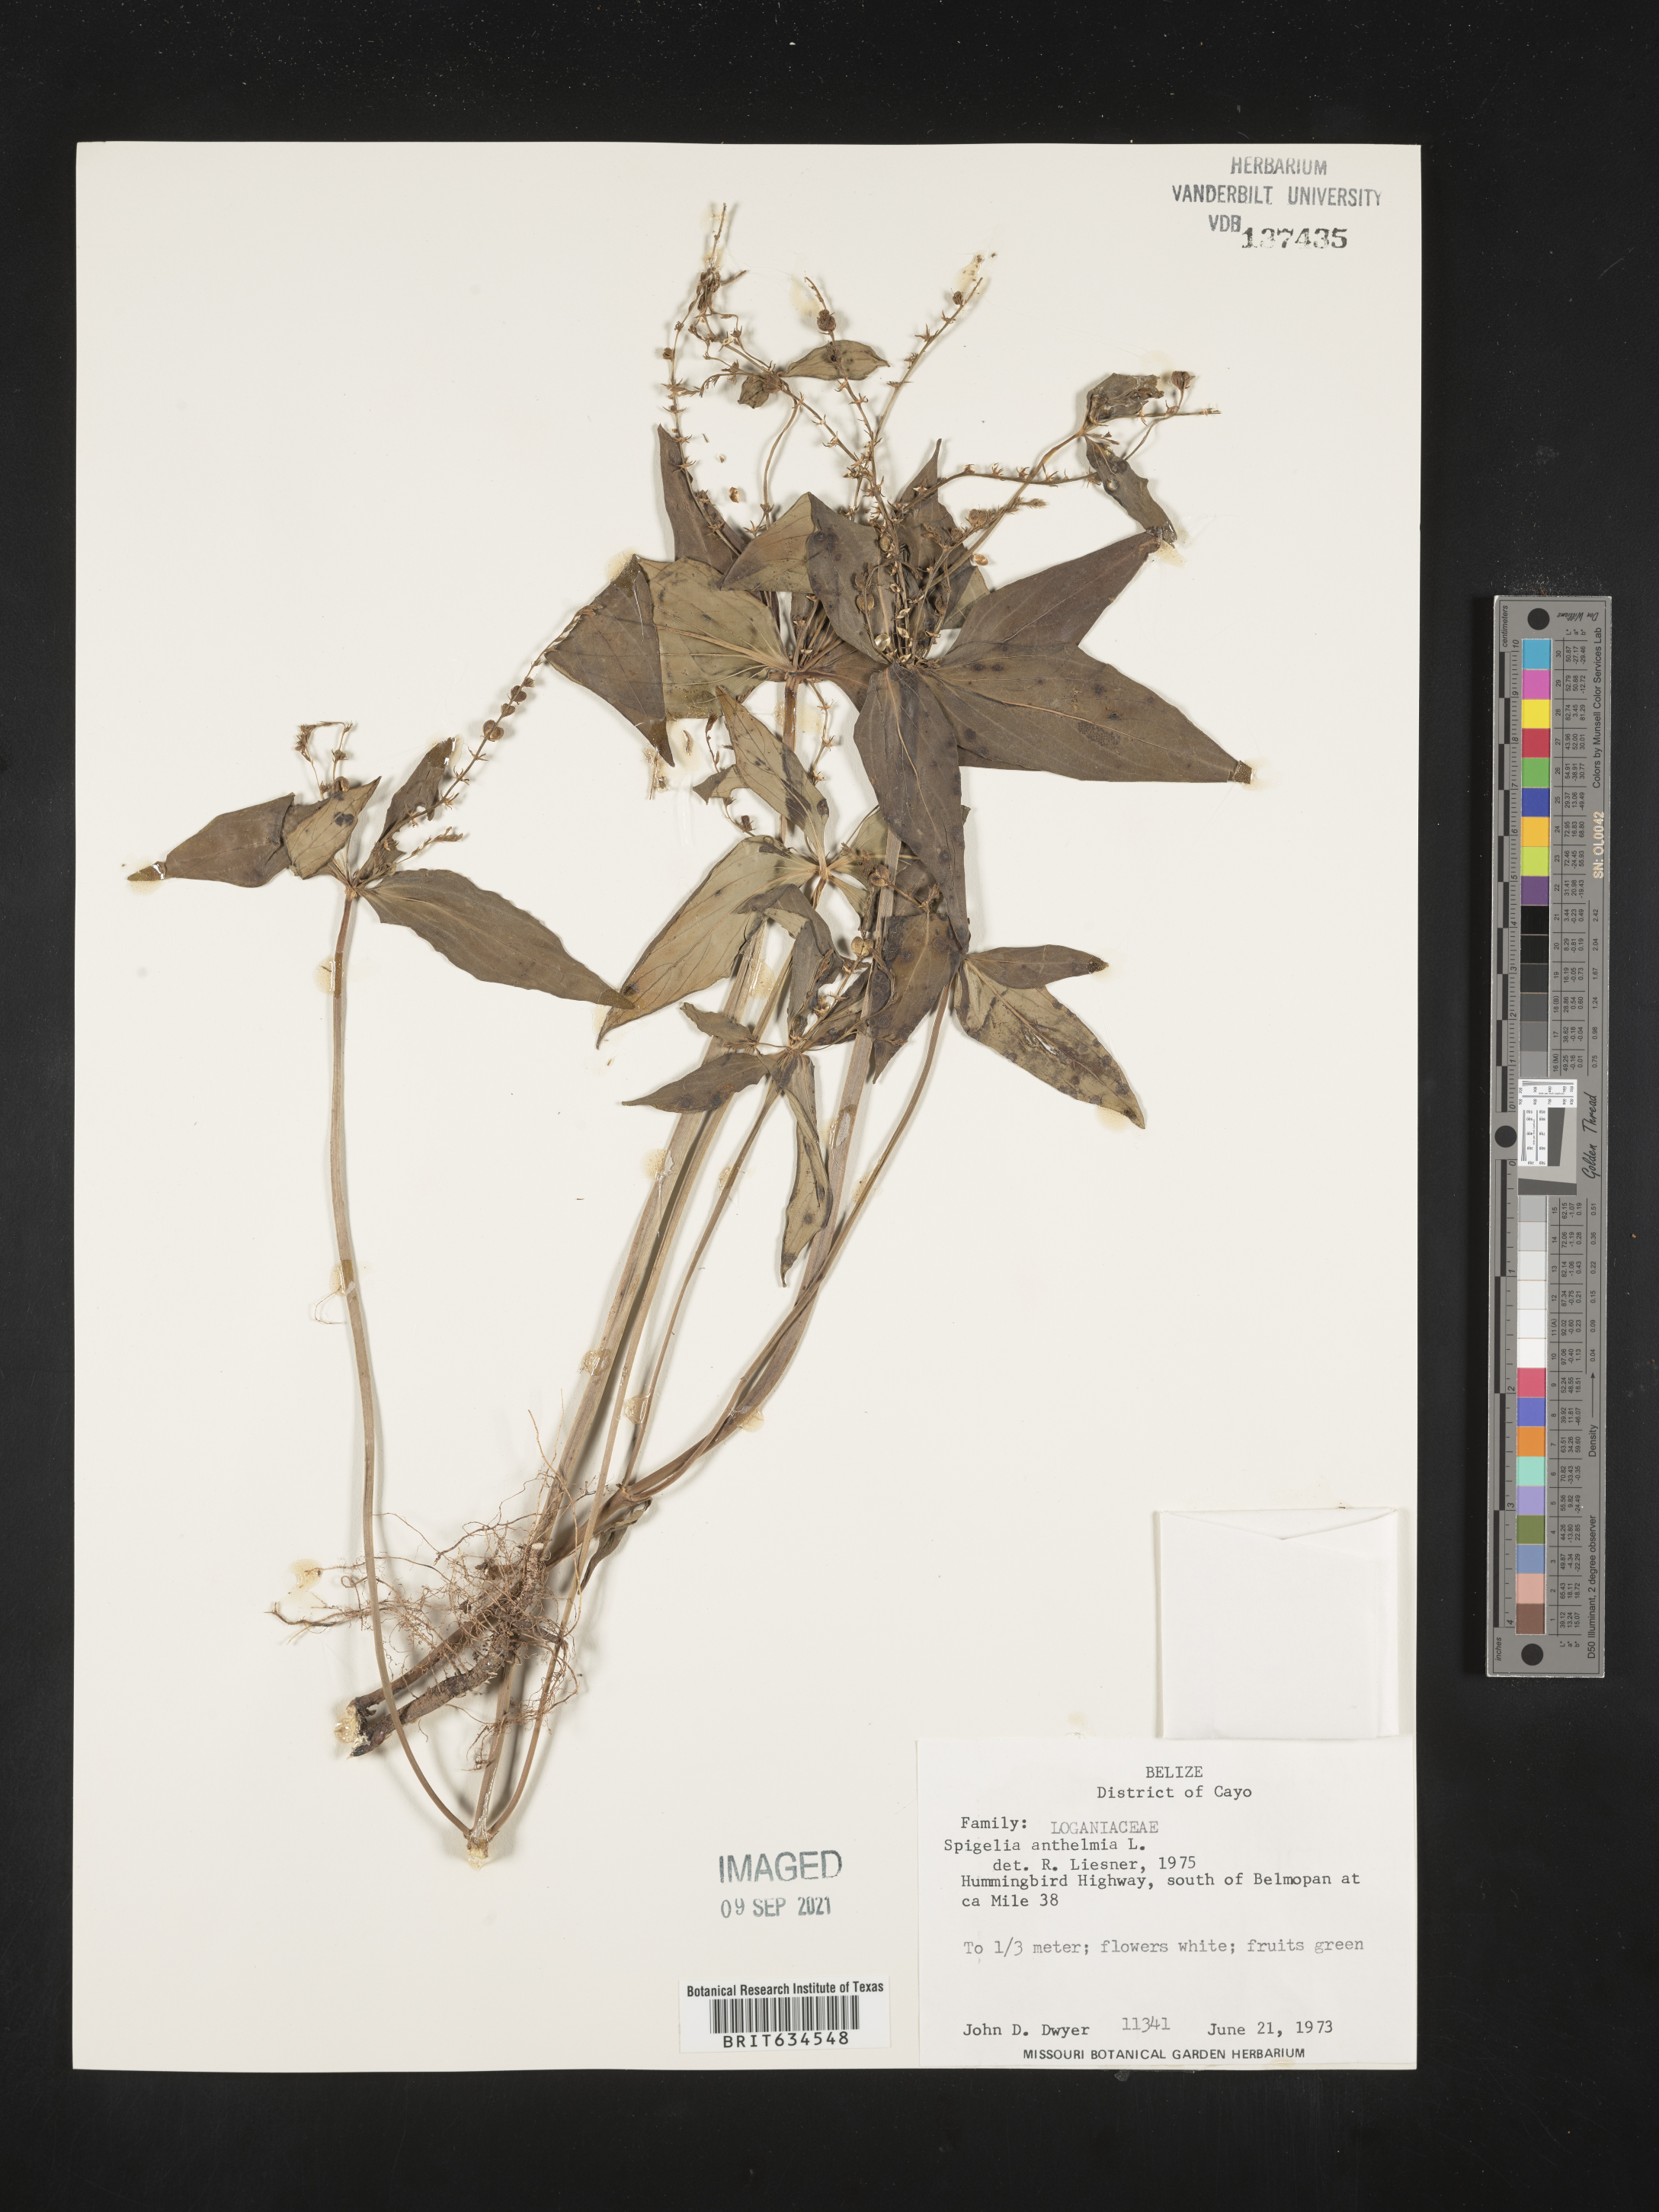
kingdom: Plantae
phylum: Tracheophyta
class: Magnoliopsida
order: Gentianales
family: Loganiaceae
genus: Spigelia
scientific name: Spigelia
